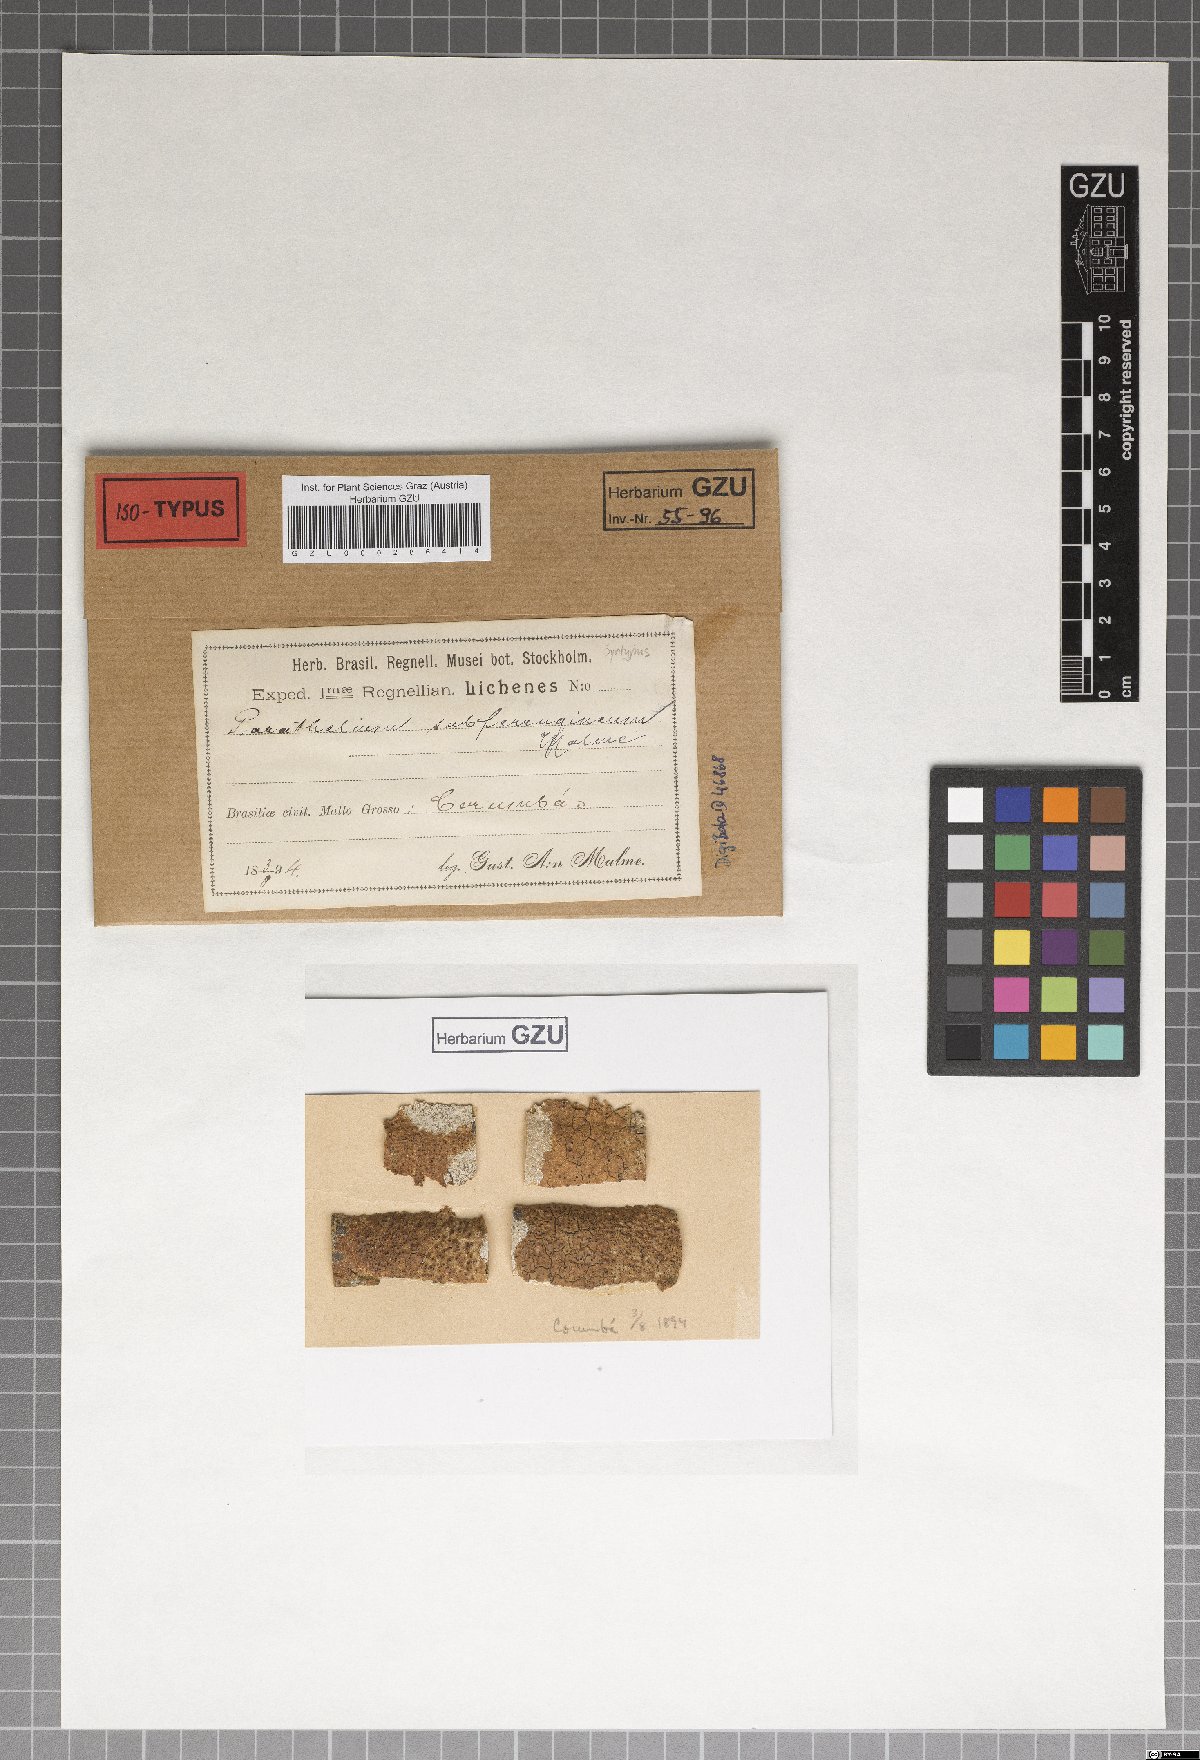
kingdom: Fungi
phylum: Ascomycota
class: Eurotiomycetes
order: Pyrenulales
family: Pyrenulaceae
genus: Pyrenula
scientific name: Pyrenula subferruginea
